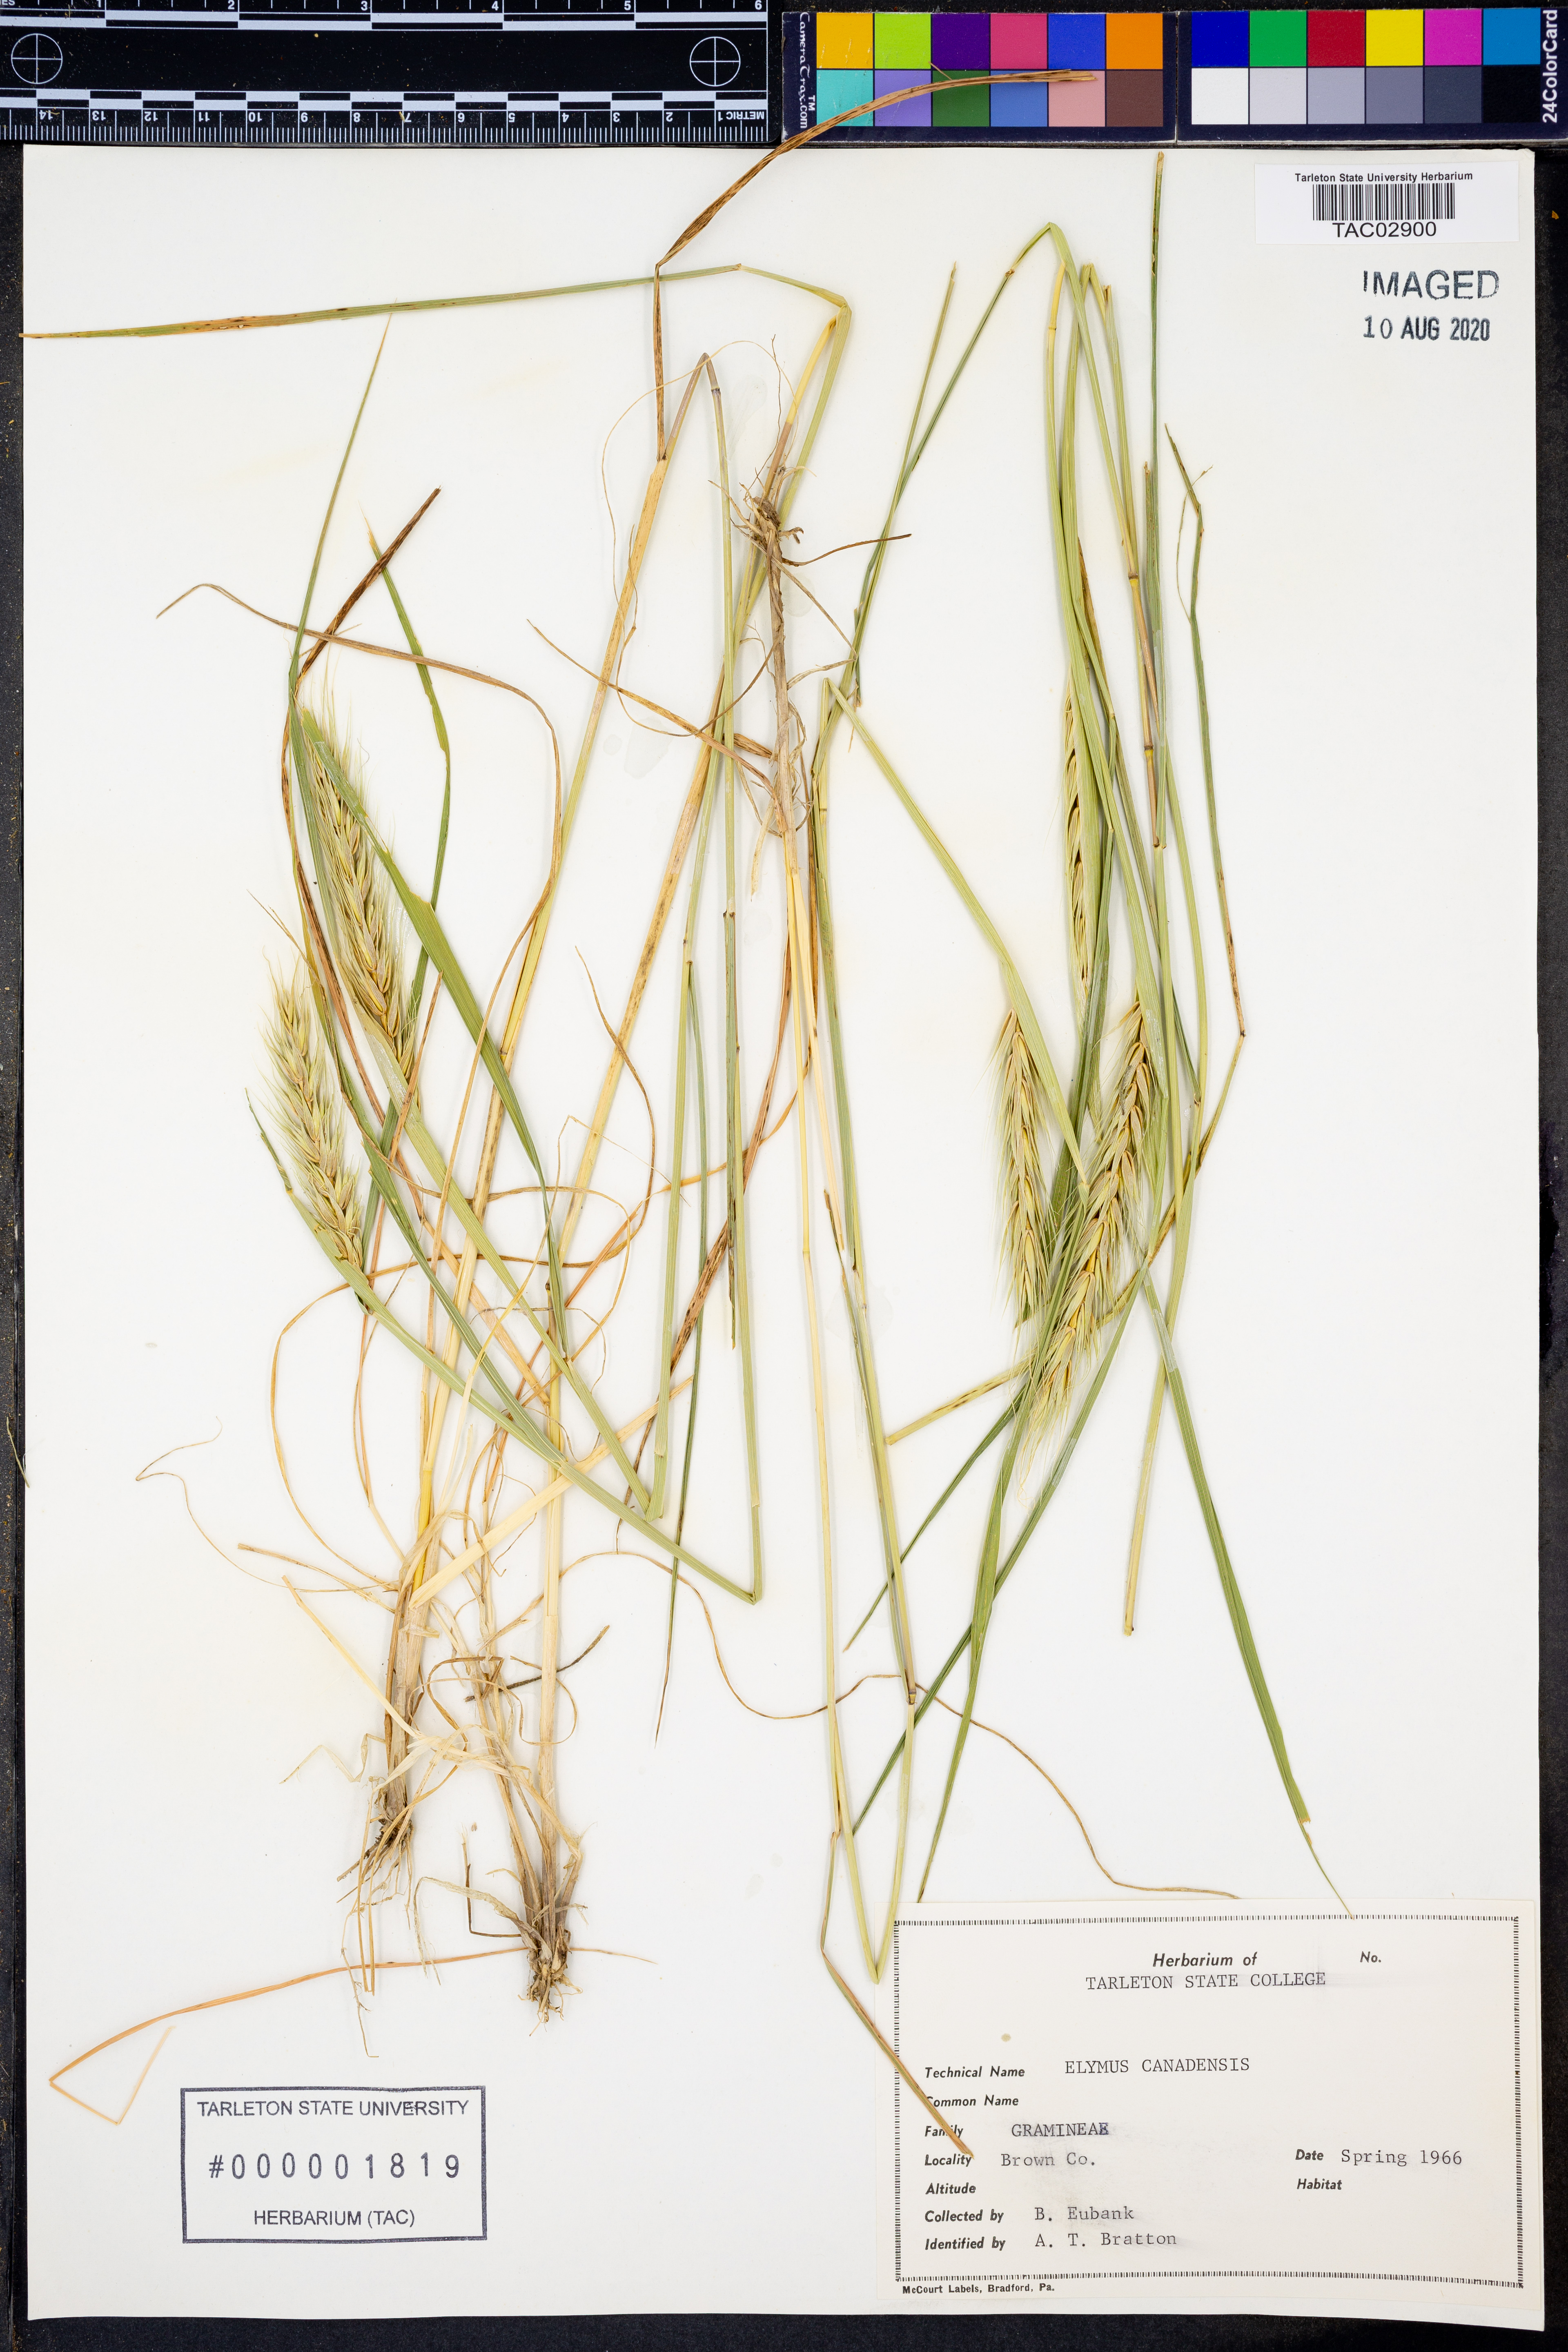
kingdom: Plantae
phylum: Tracheophyta
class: Liliopsida
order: Poales
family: Poaceae
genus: Elymus
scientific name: Elymus canadensis
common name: Canada wild rye
